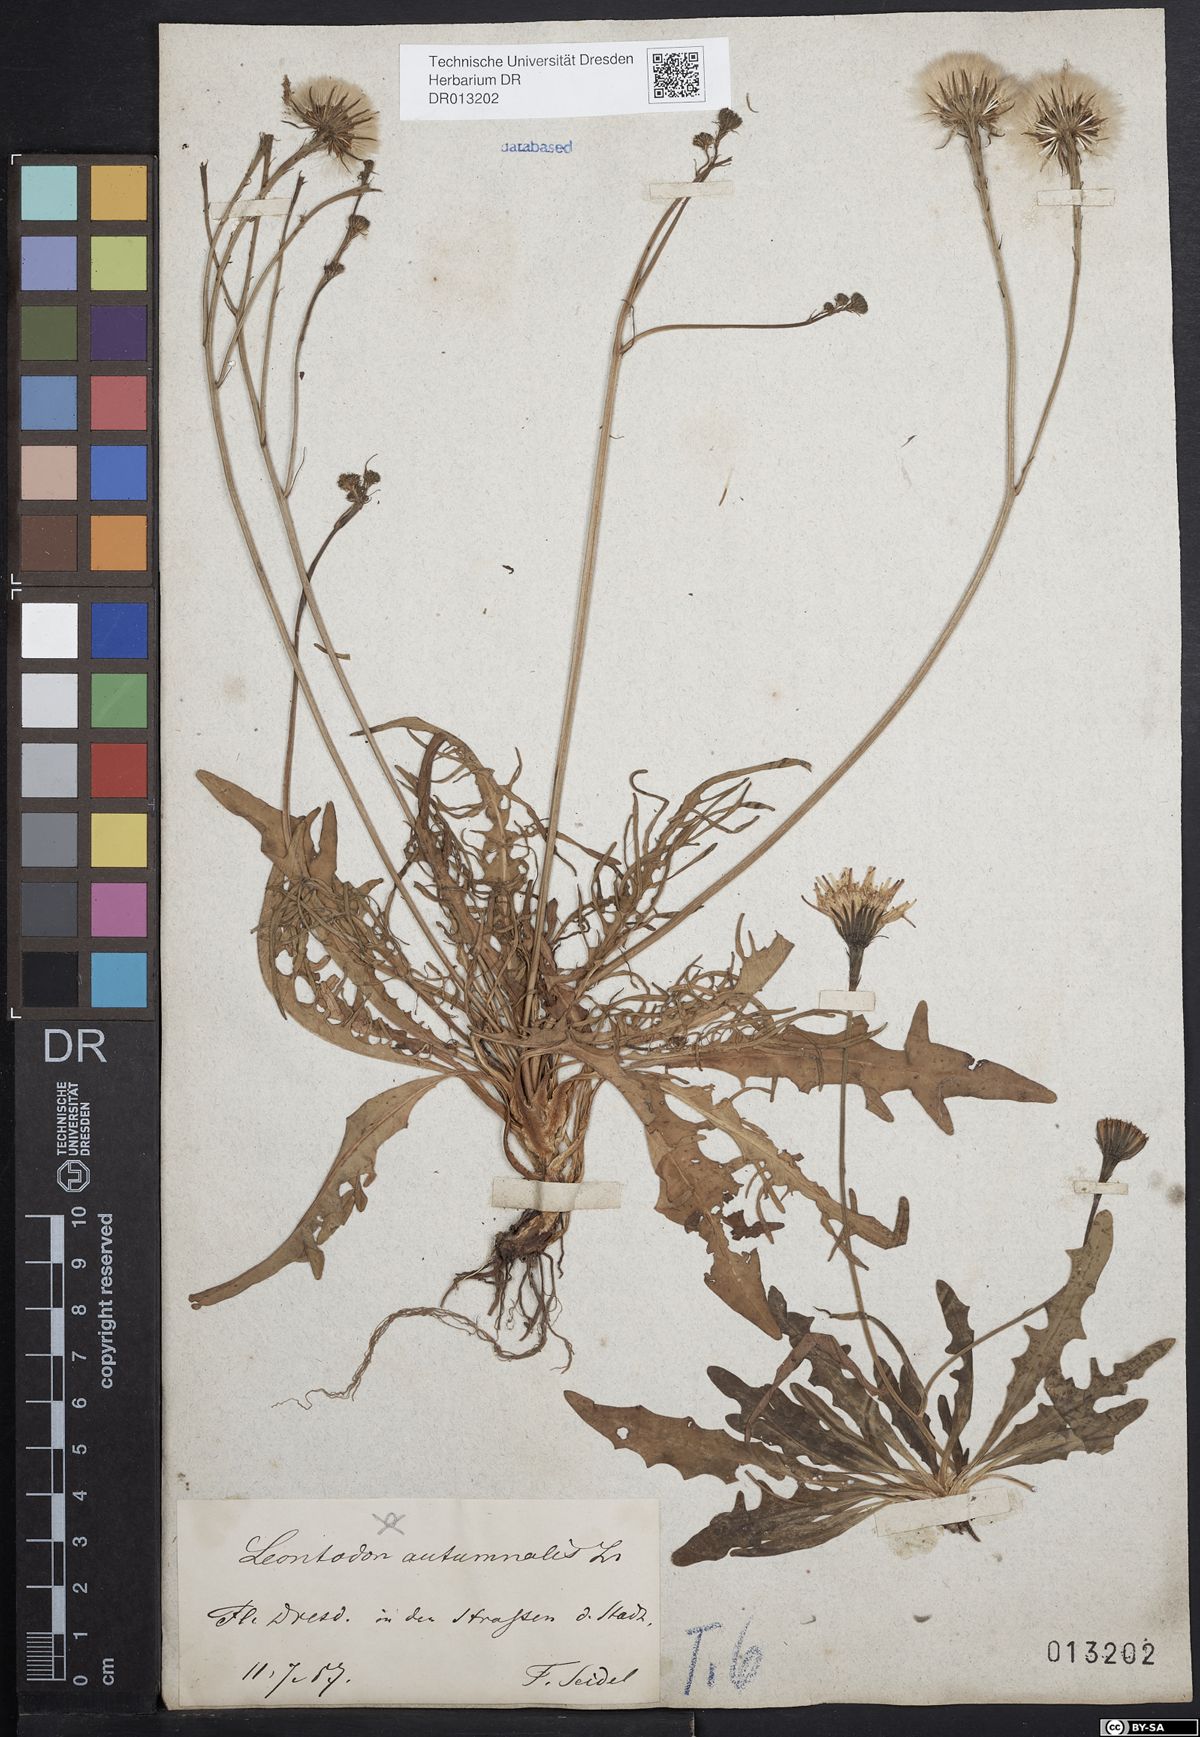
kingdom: Plantae
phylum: Tracheophyta
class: Magnoliopsida
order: Asterales
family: Asteraceae
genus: Scorzoneroides
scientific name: Scorzoneroides autumnalis
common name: Autumn hawkbit
